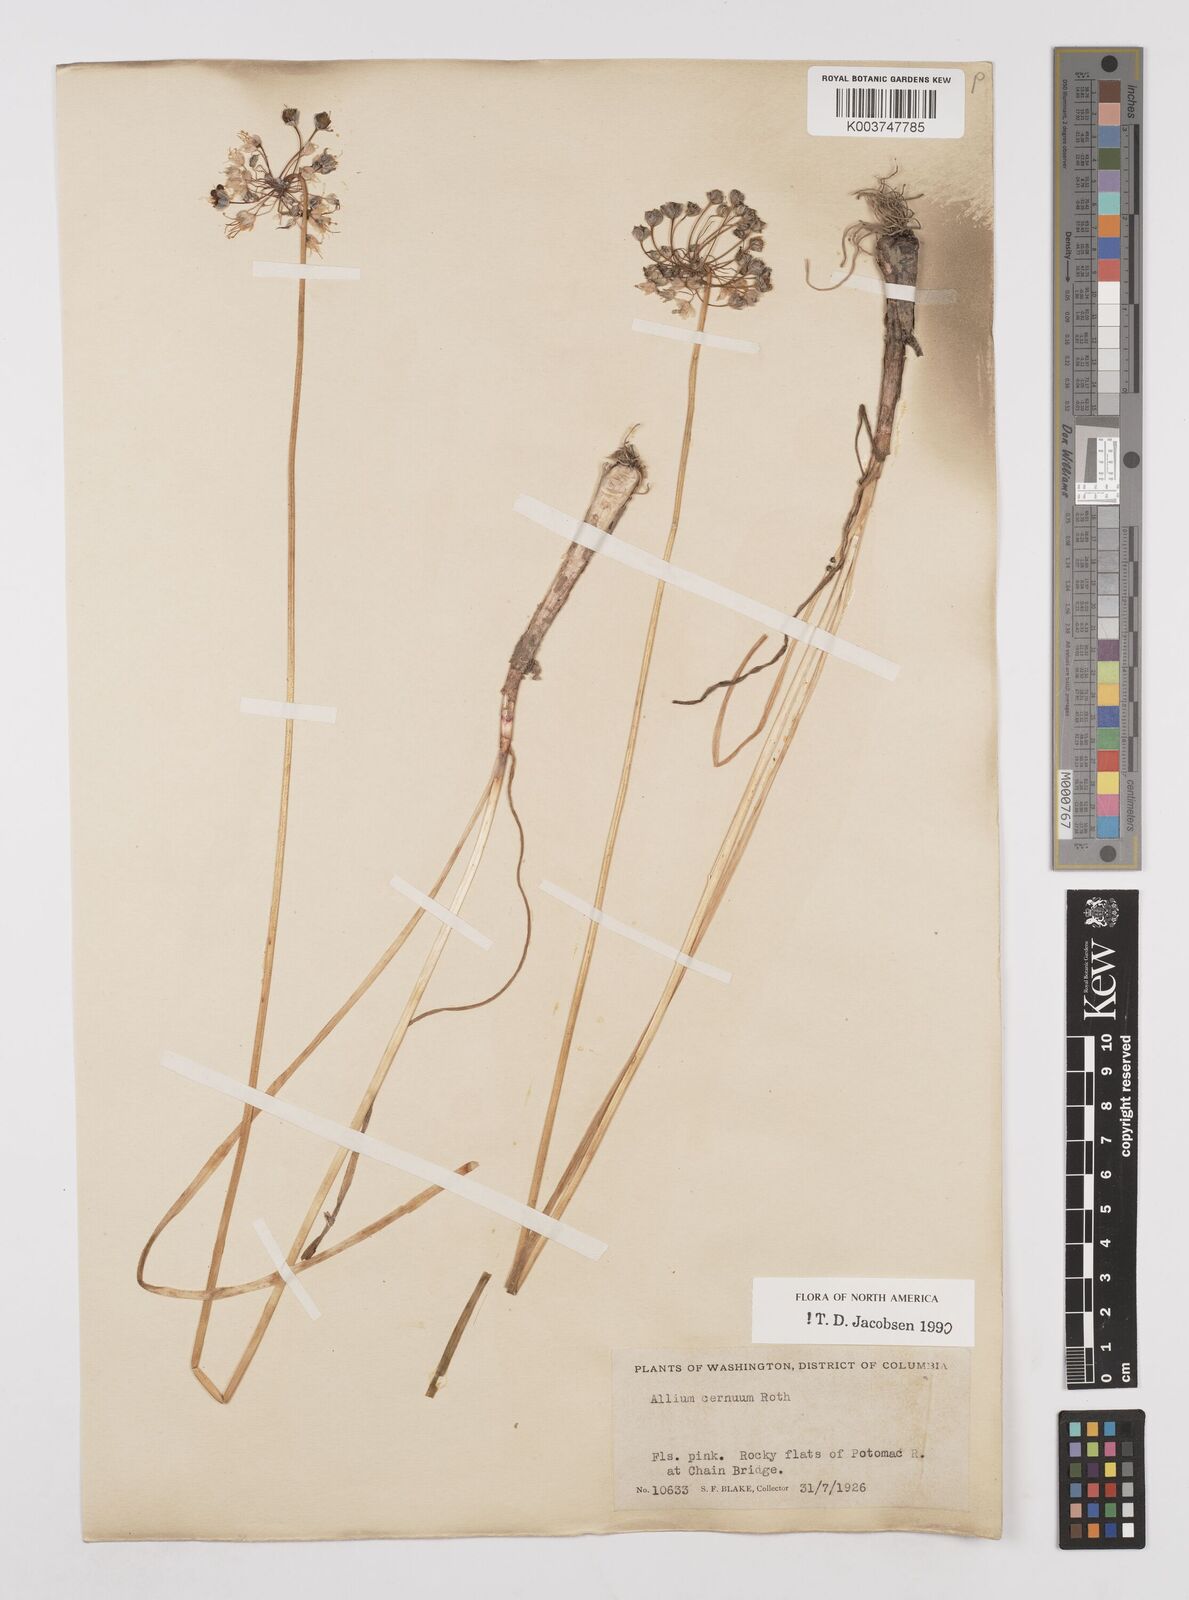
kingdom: Plantae
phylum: Tracheophyta
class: Liliopsida
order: Asparagales
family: Amaryllidaceae
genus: Allium
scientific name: Allium cernuum
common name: Nodding onion
